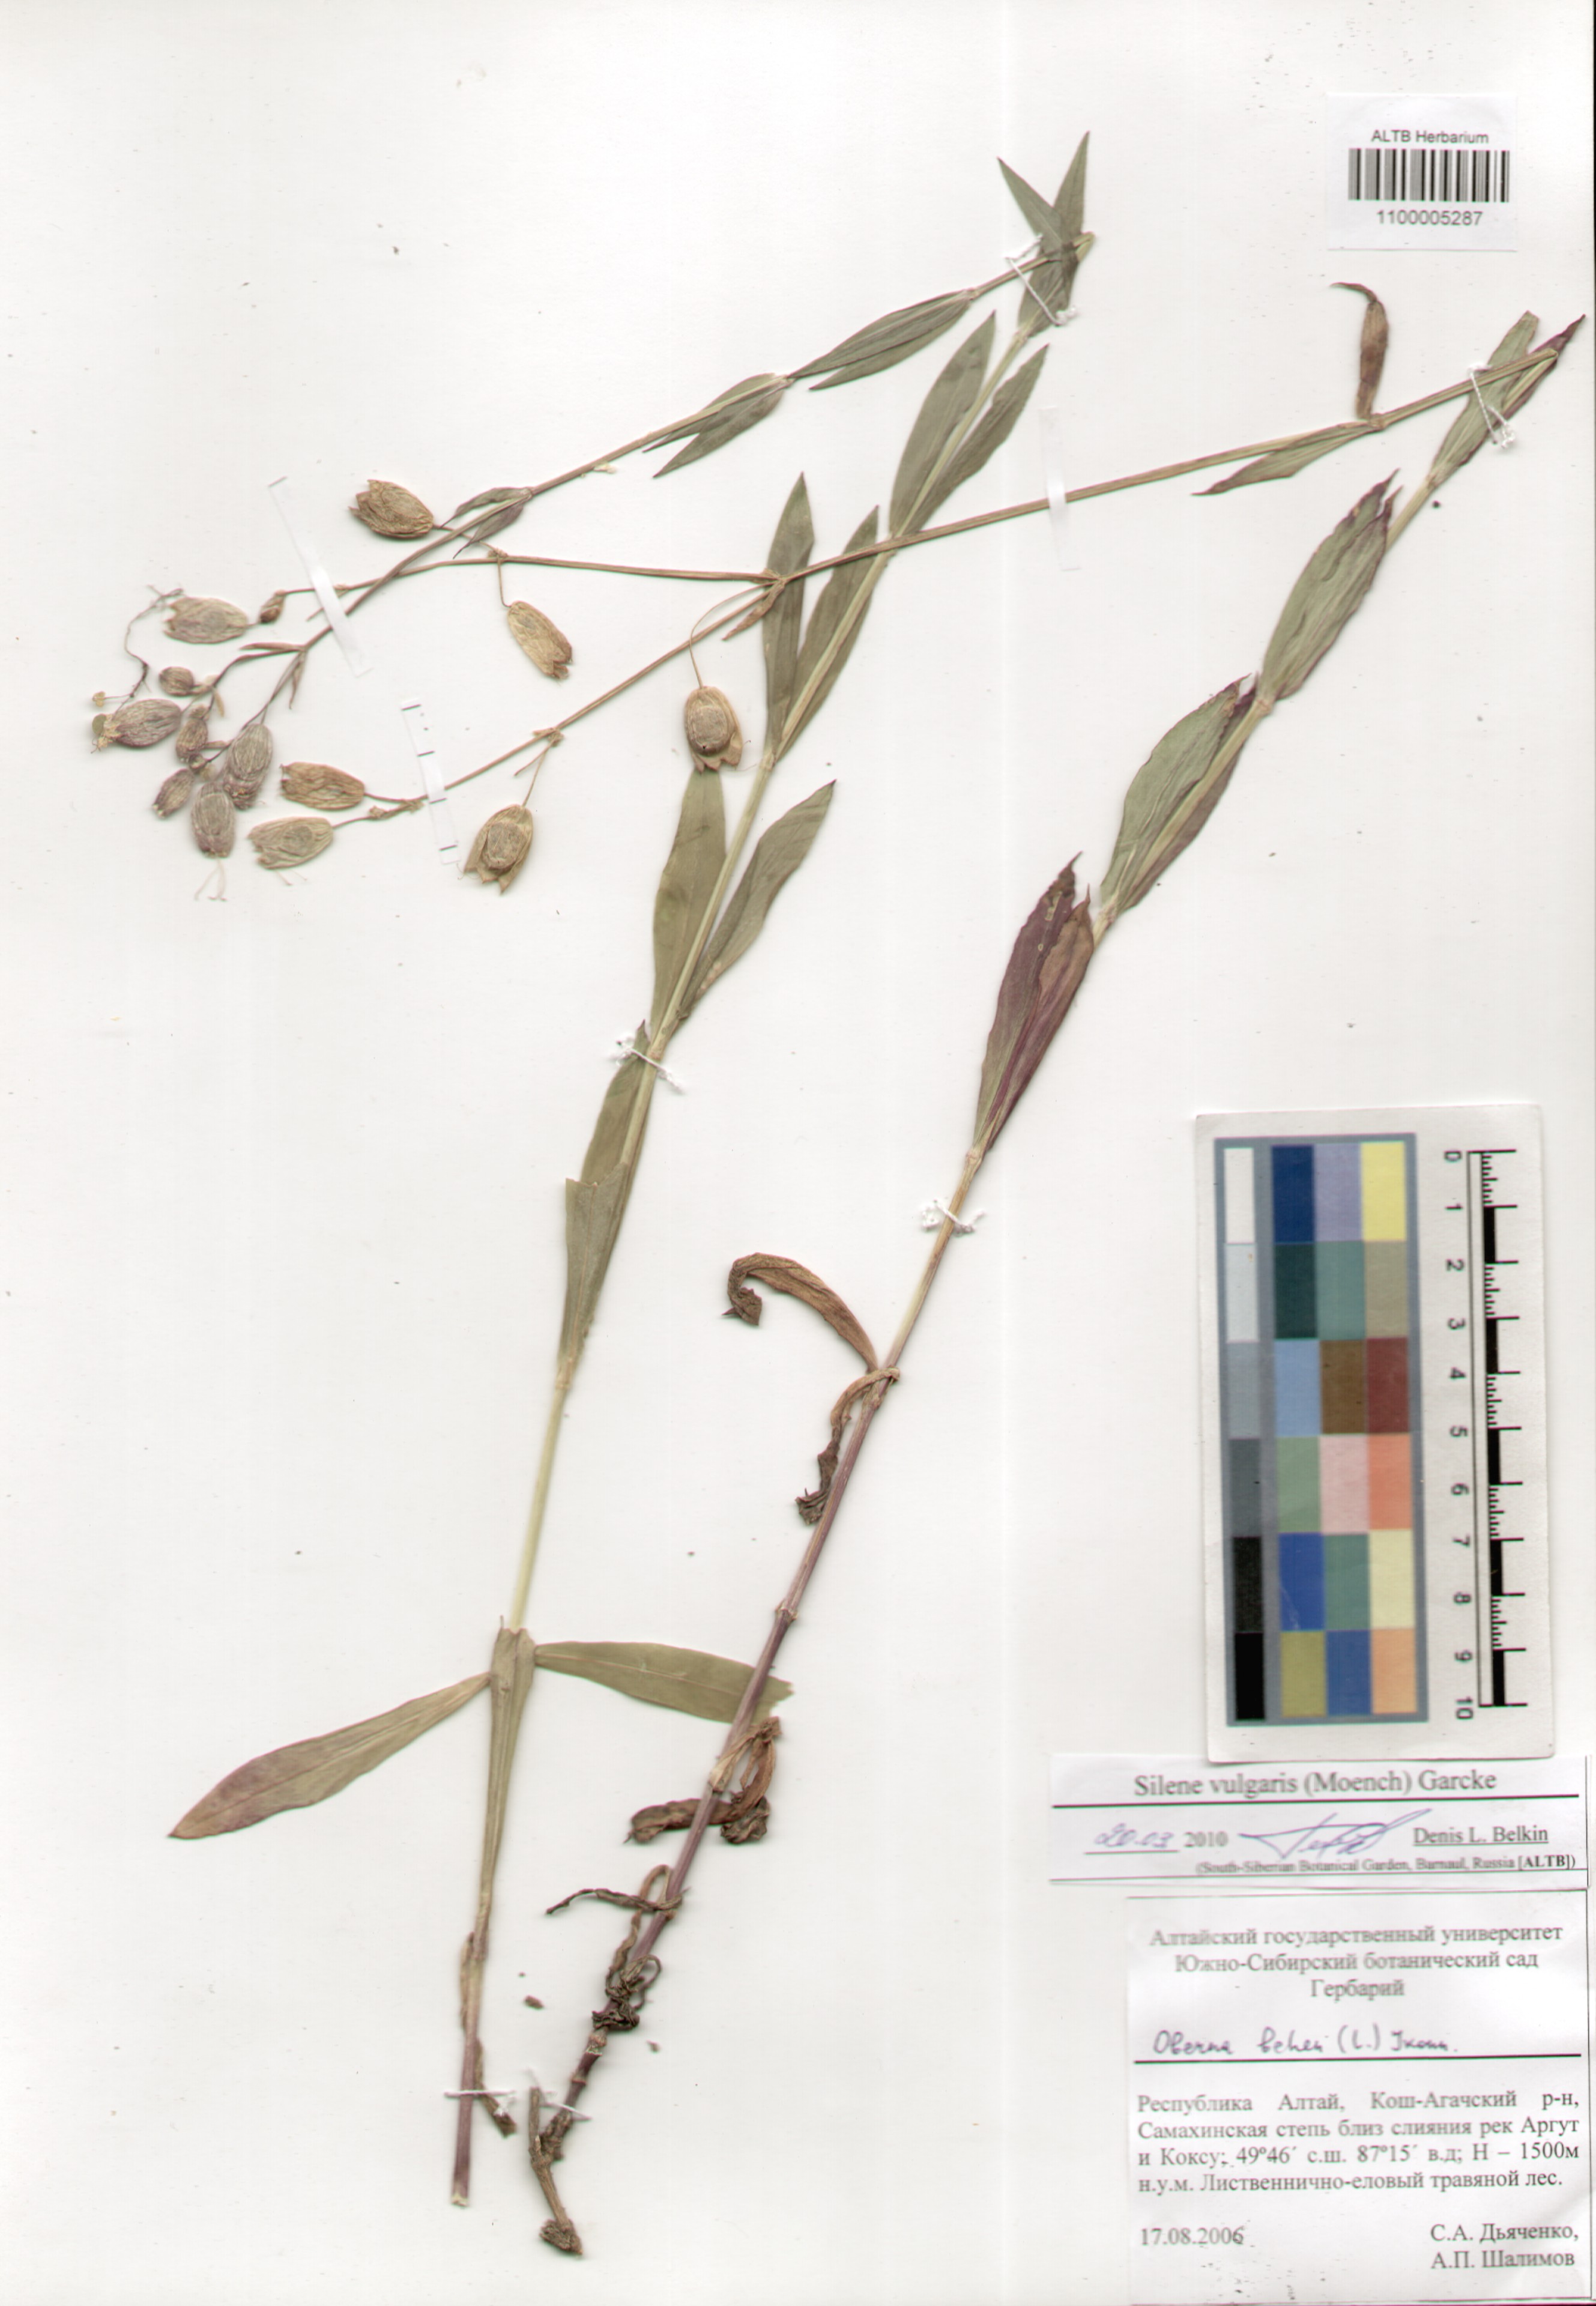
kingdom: Plantae
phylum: Tracheophyta
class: Magnoliopsida
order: Caryophyllales
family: Caryophyllaceae
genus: Silene
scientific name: Silene vulgaris
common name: Bladder campion
